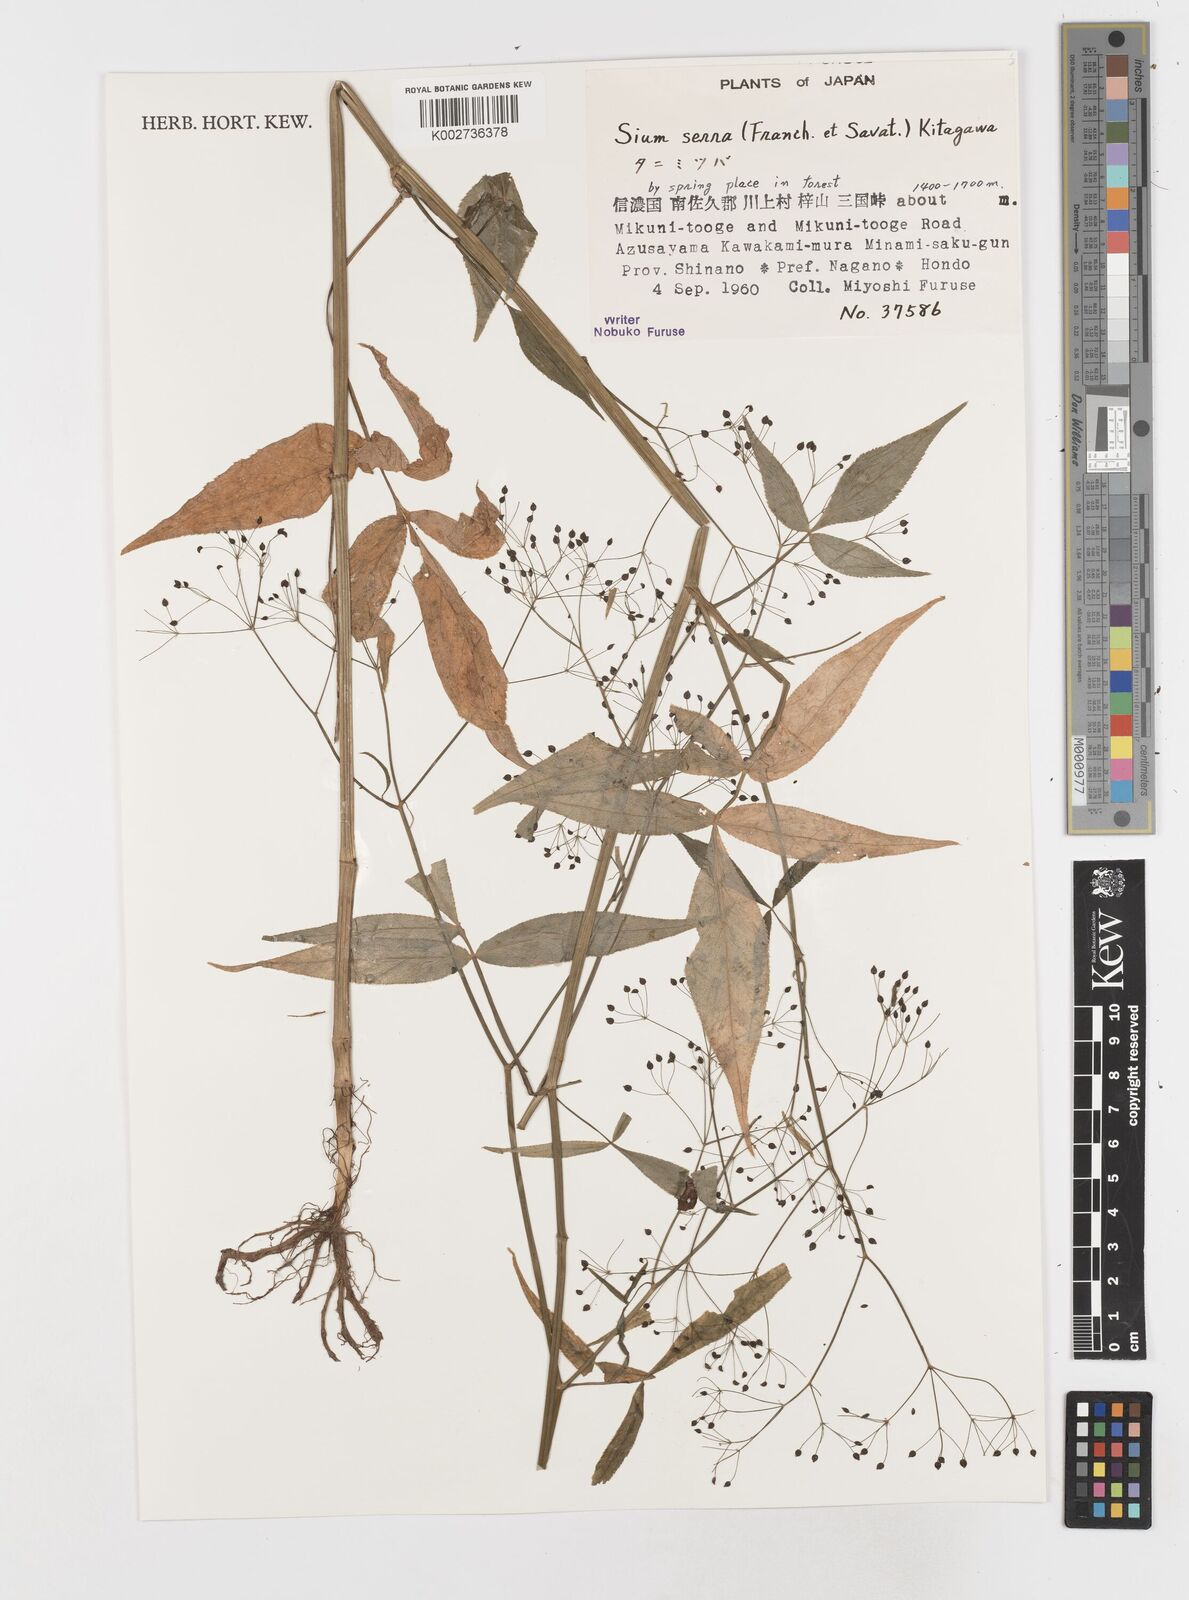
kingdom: Plantae
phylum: Tracheophyta
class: Magnoliopsida
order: Apiales
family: Apiaceae
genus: Sium
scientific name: Sium serra
